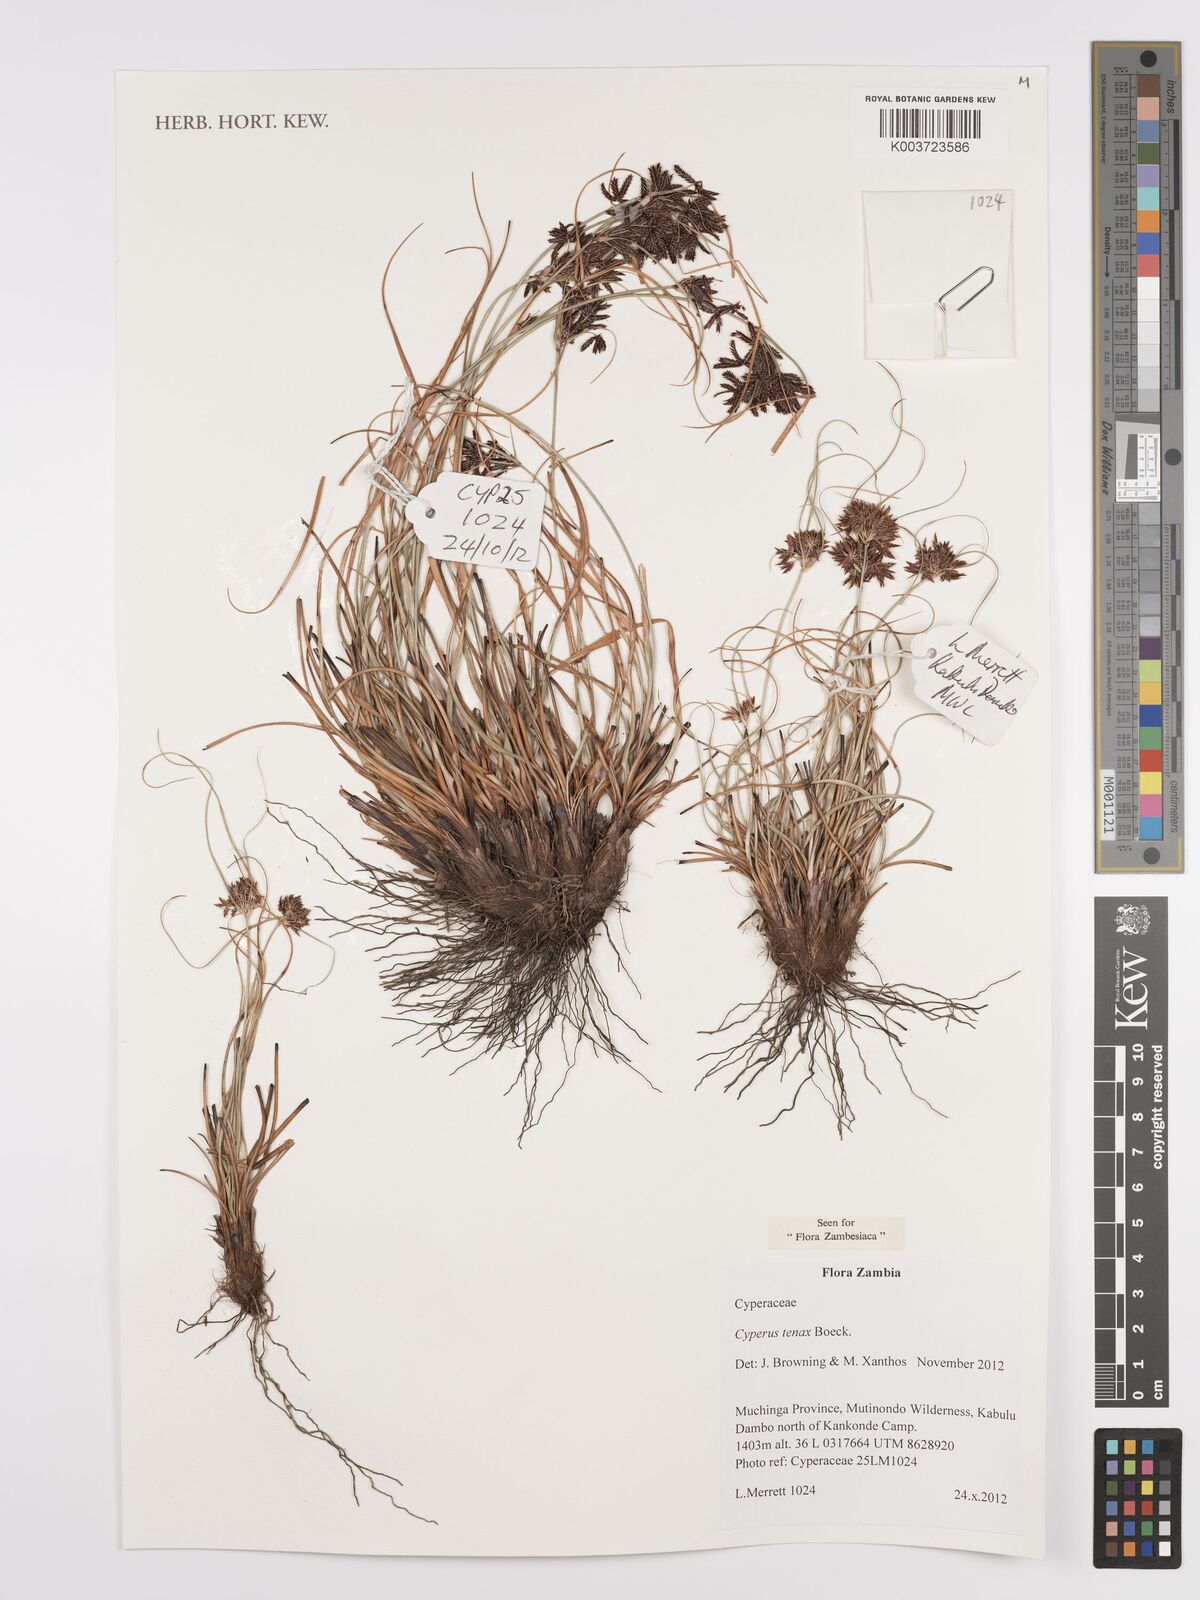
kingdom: Plantae
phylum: Tracheophyta
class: Liliopsida
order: Poales
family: Cyperaceae
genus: Cyperus
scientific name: Cyperus tenax
